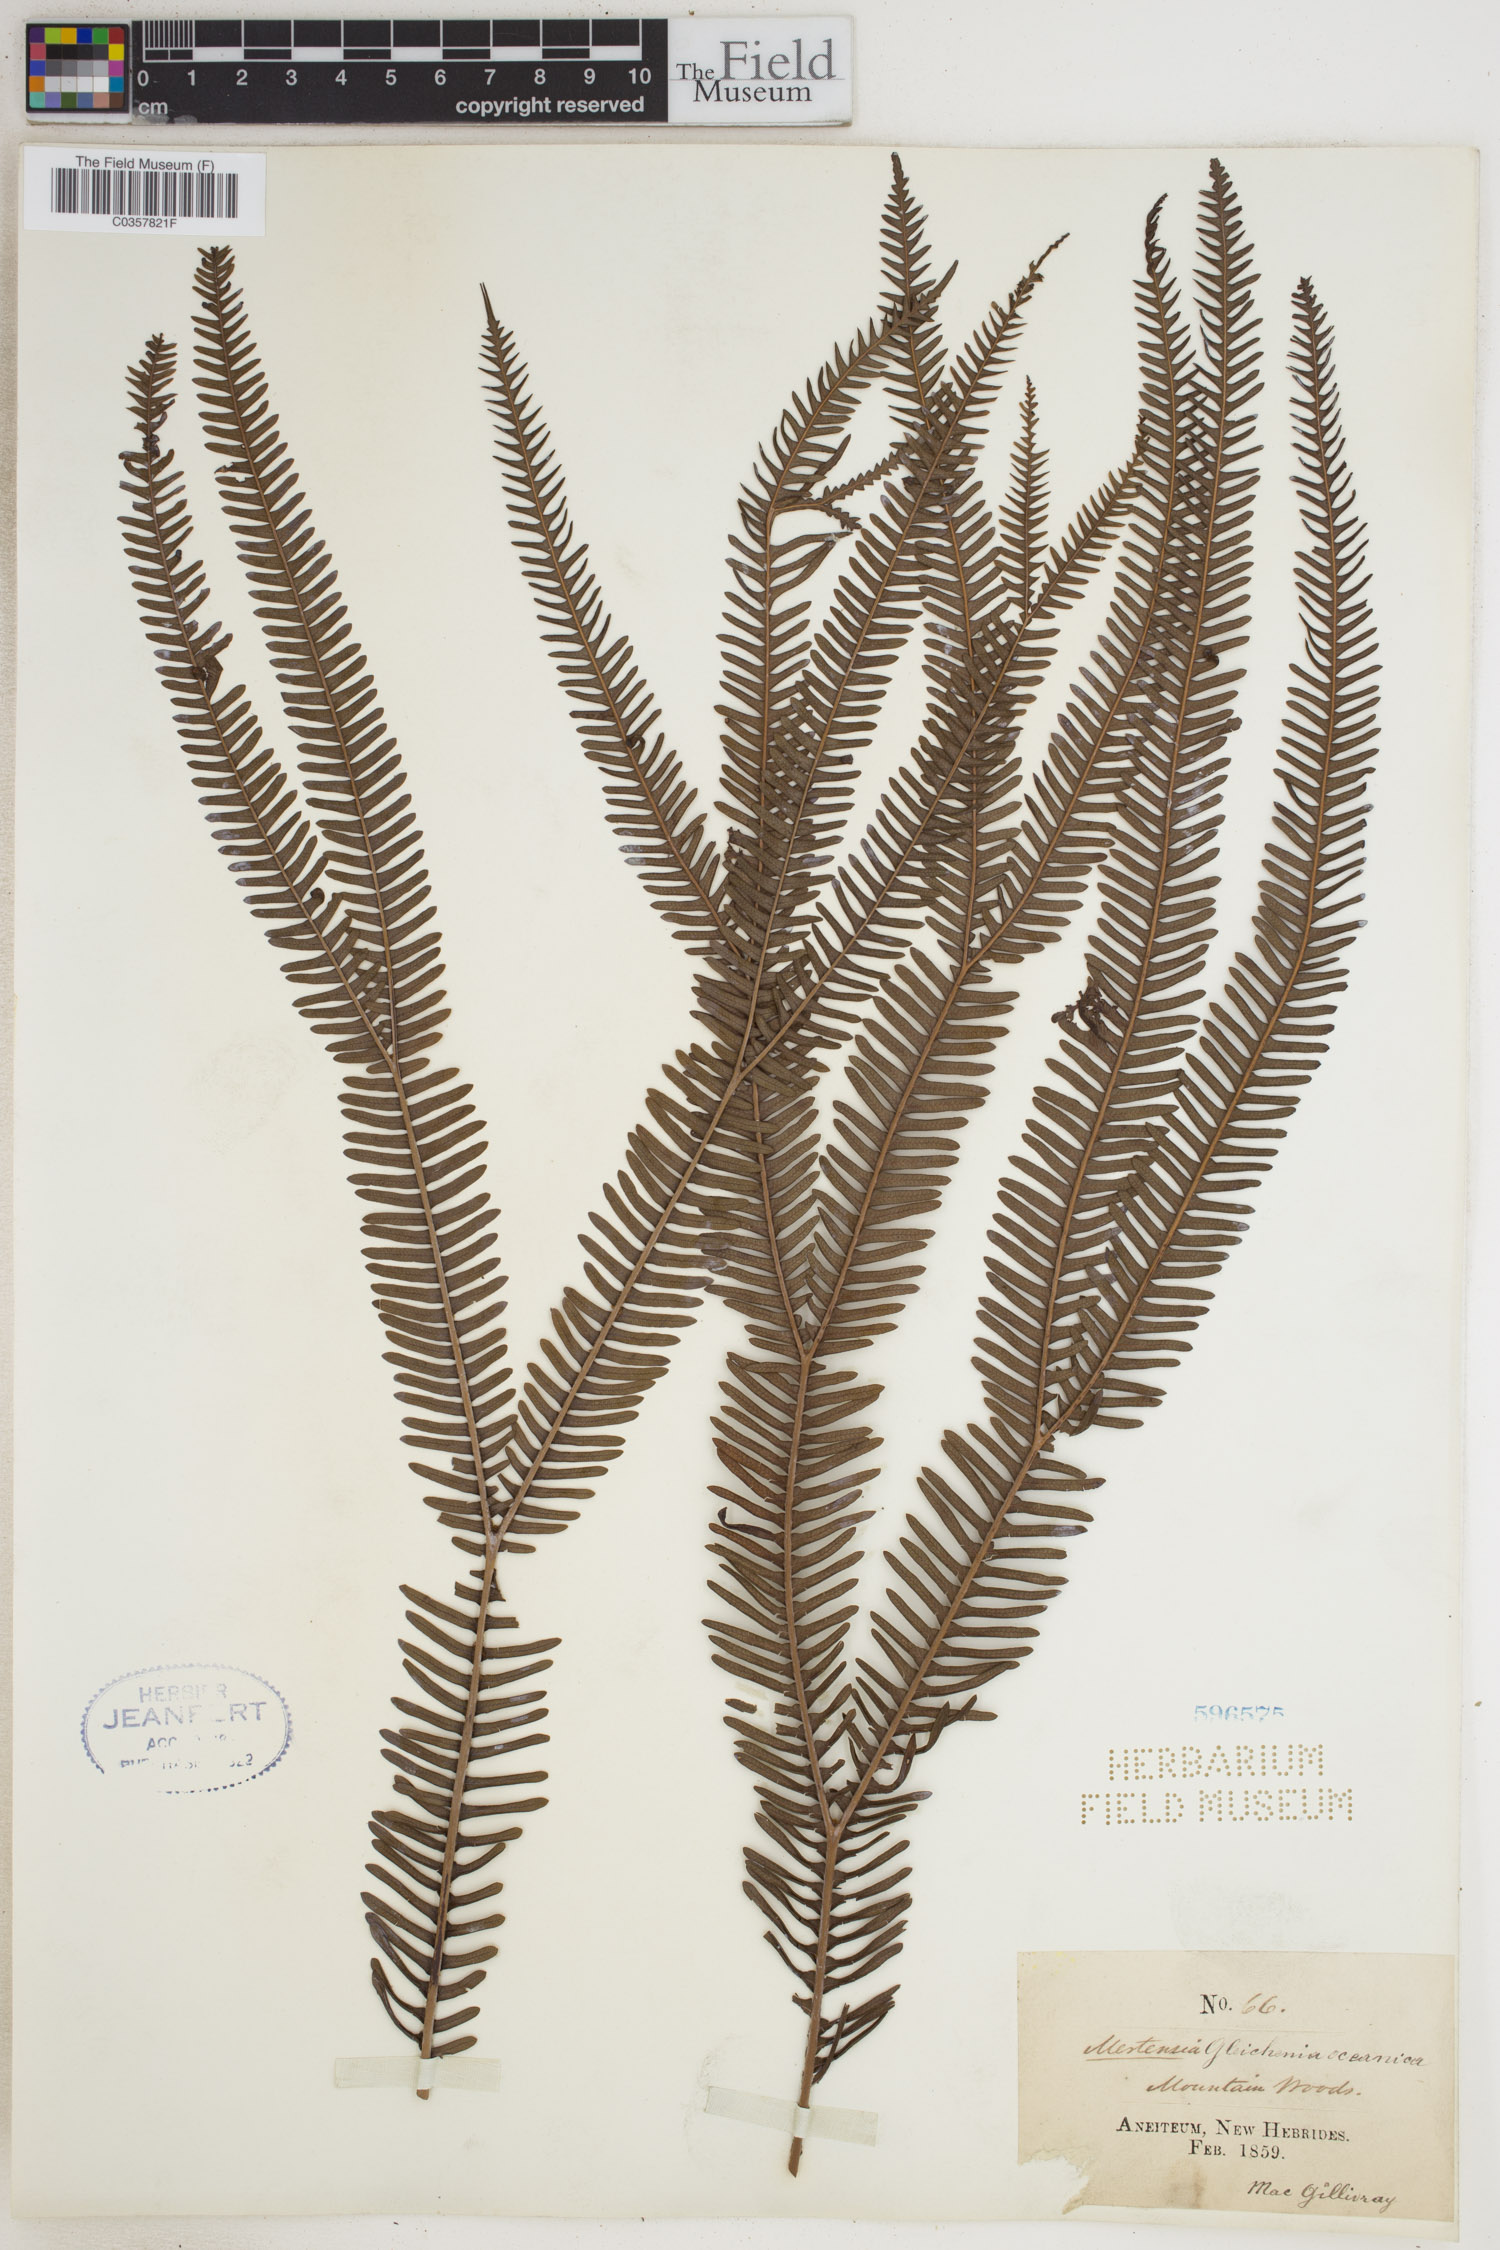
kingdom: Plantae
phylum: Tracheophyta
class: Polypodiopsida
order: Gleicheniales
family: Gleicheniaceae
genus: Sticherus
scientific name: Sticherus oceanicus
